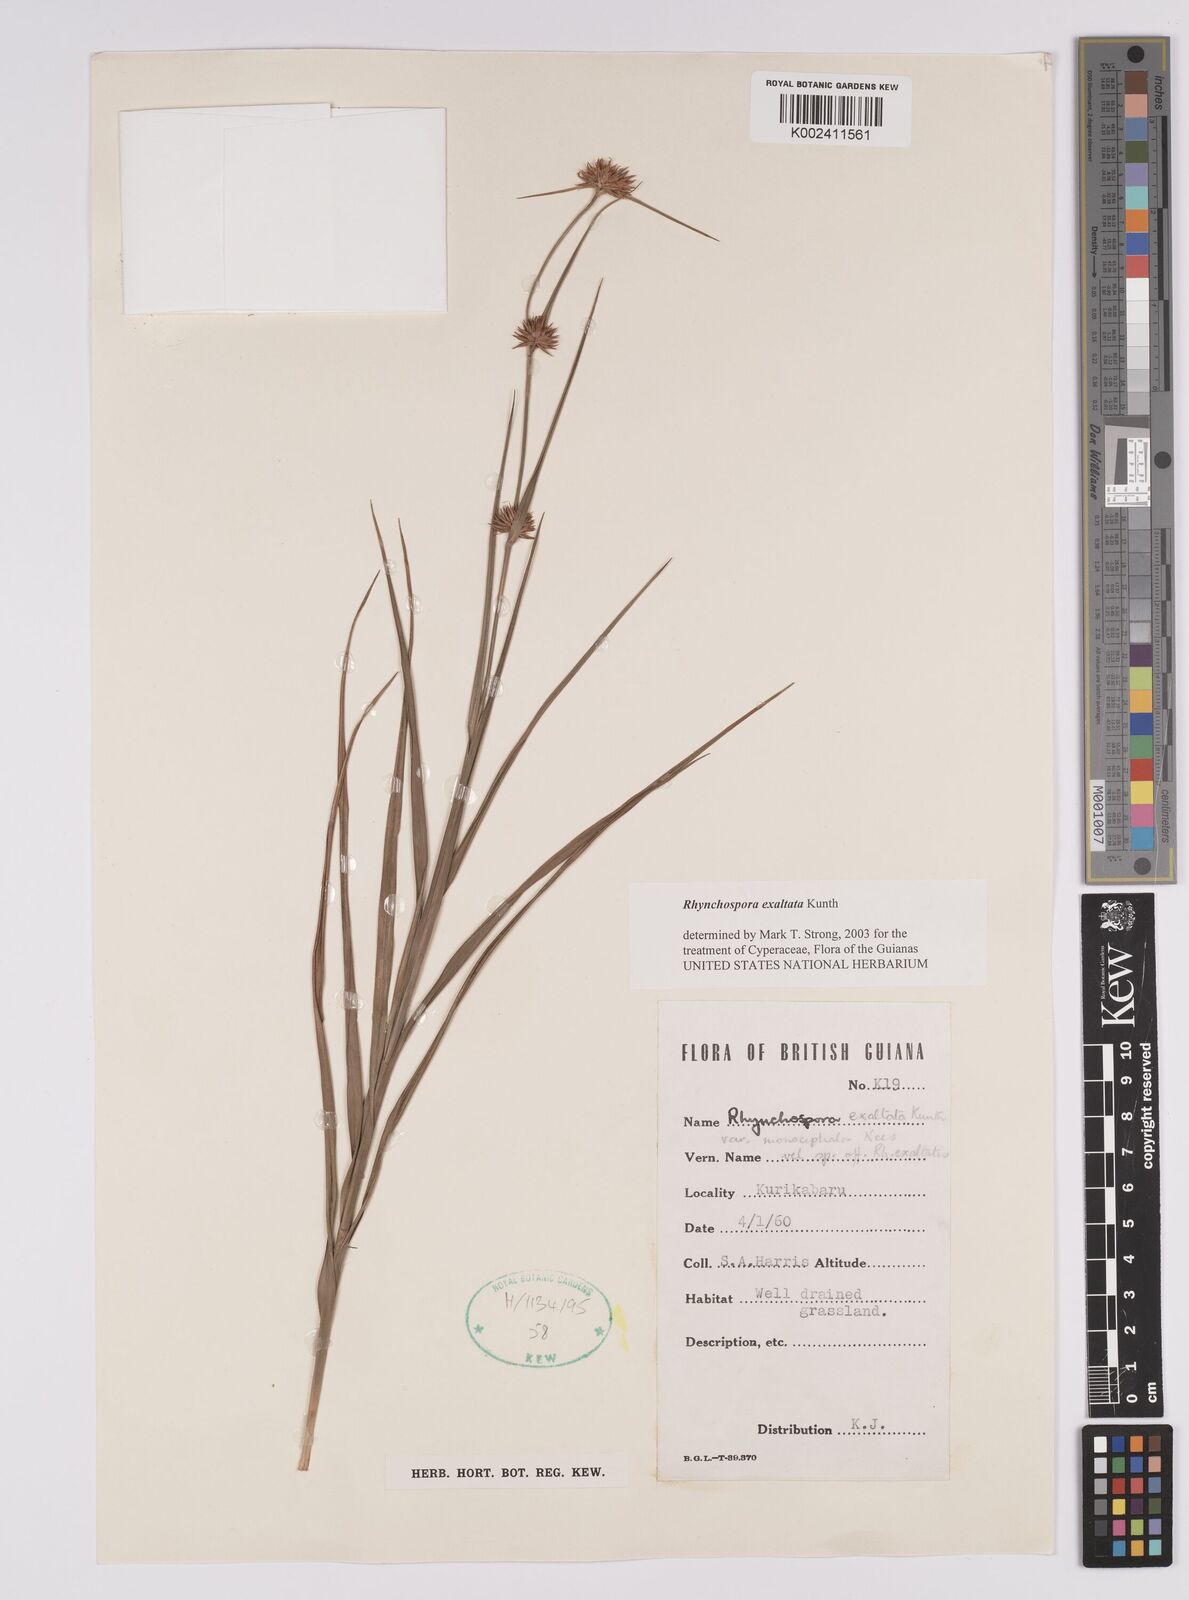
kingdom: Plantae
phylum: Tracheophyta
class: Liliopsida
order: Poales
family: Cyperaceae
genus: Rhynchospora
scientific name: Rhynchospora exaltata
